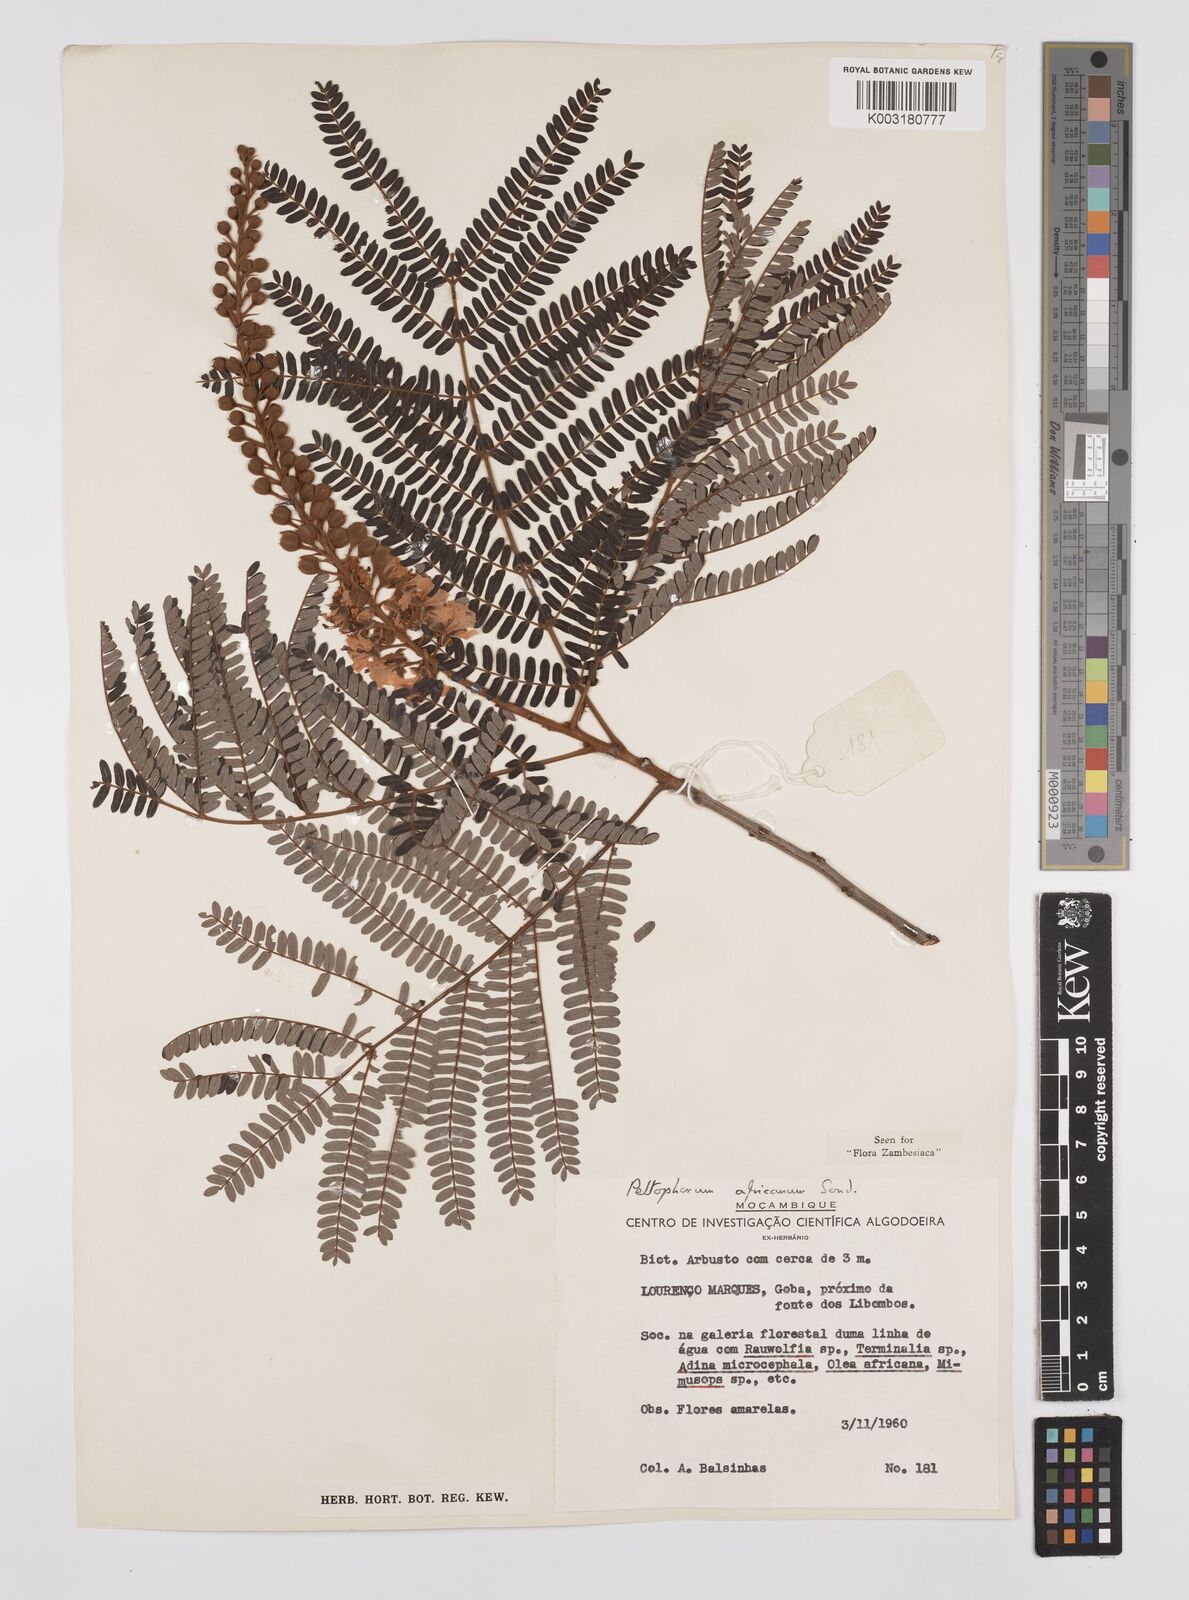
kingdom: Plantae
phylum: Tracheophyta
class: Magnoliopsida
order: Fabales
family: Fabaceae
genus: Peltophorum
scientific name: Peltophorum africanum
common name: African black wattle
